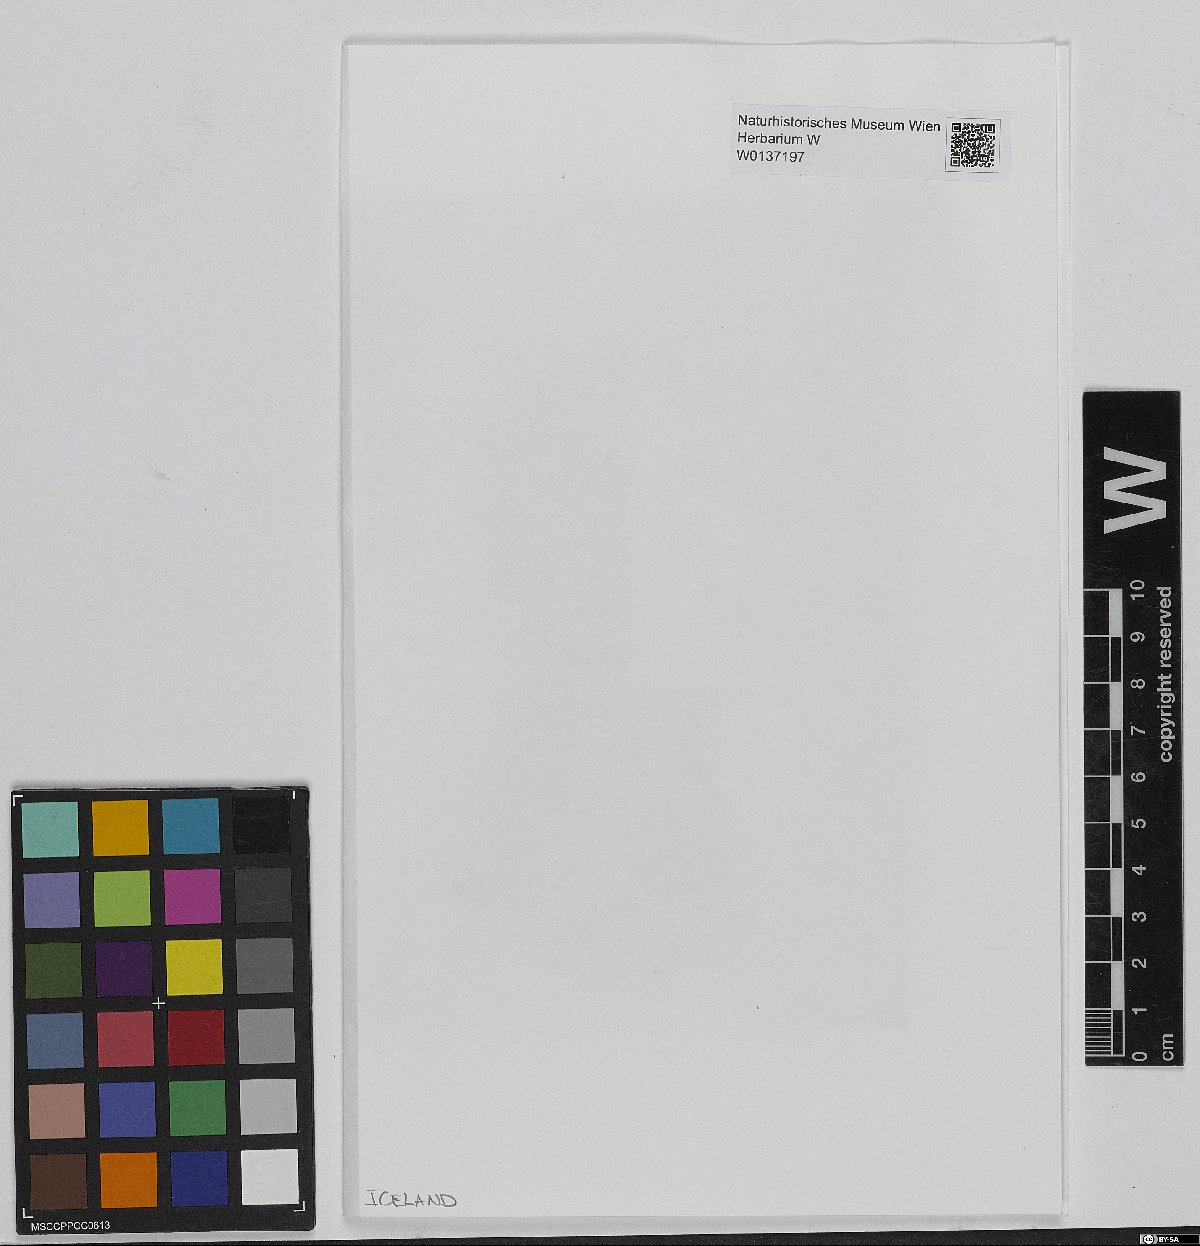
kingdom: Plantae
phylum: Bryophyta
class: Sphagnopsida
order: Sphagnales
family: Sphagnaceae
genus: Sphagnum
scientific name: Sphagnum girgensohnii
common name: Girgensohn's peat moss
